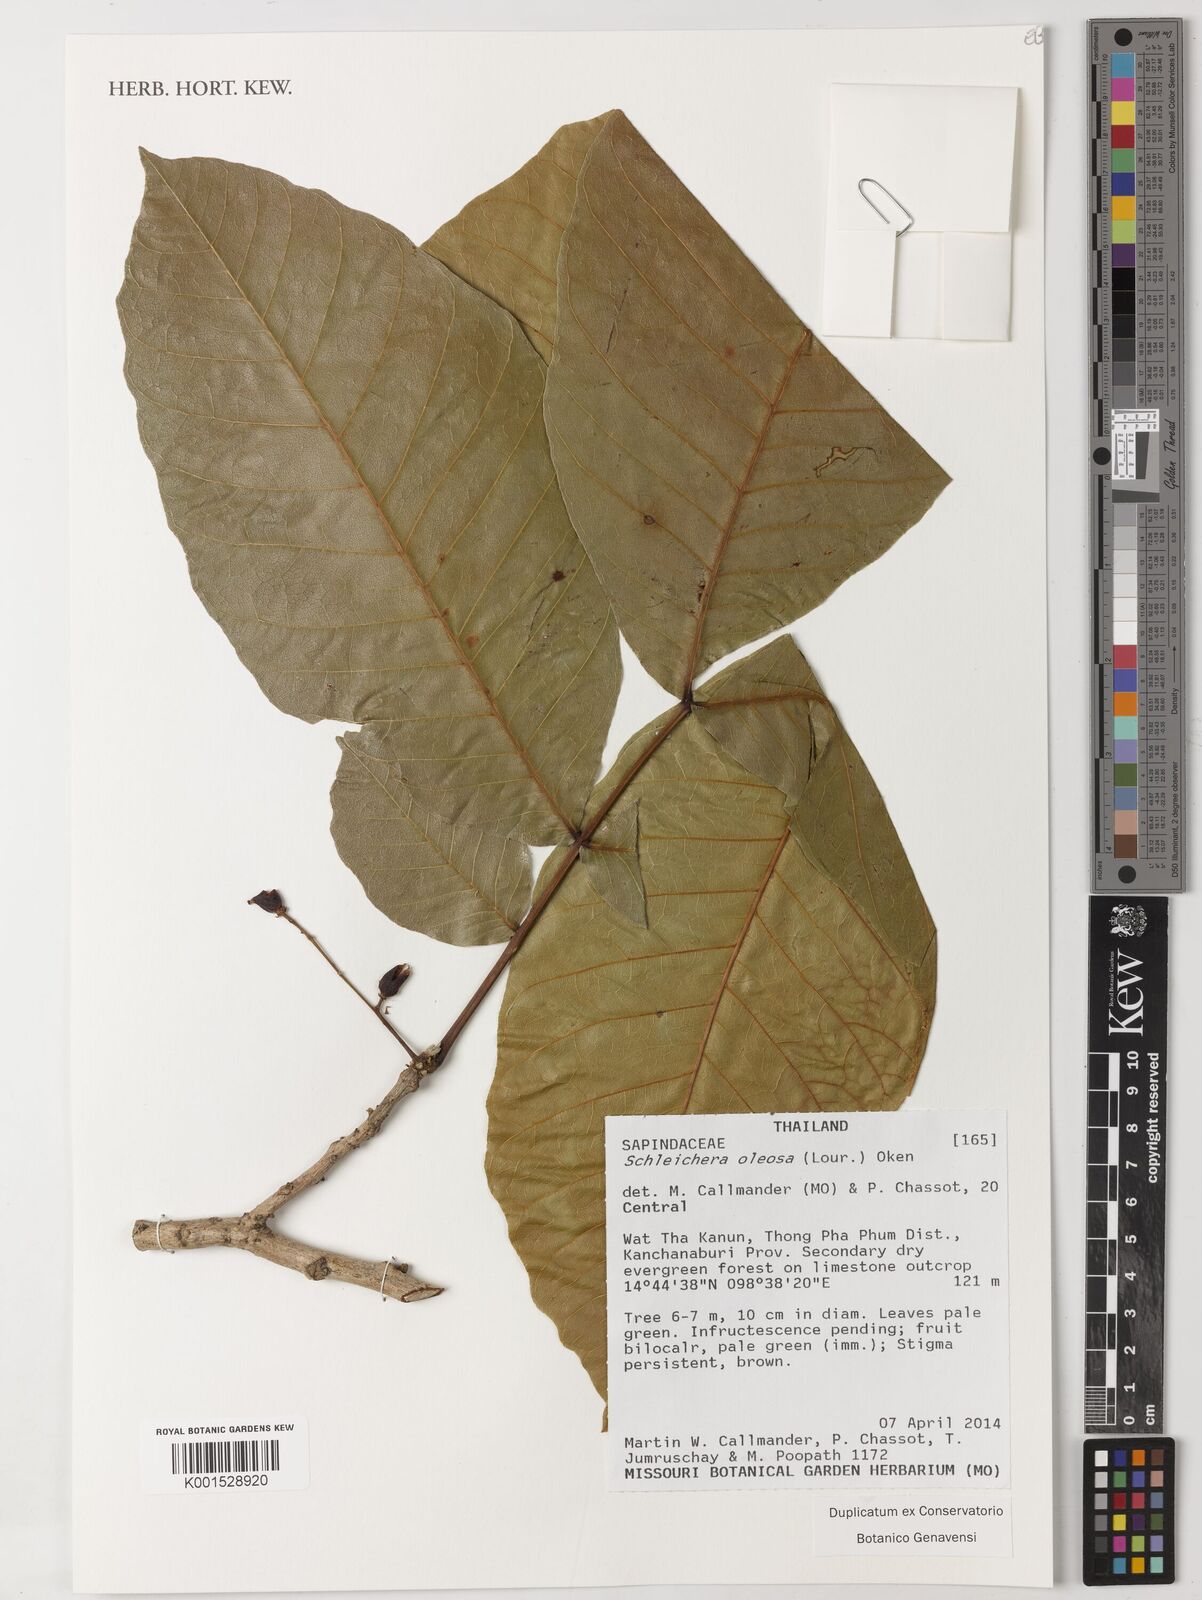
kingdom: Plantae
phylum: Tracheophyta
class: Magnoliopsida
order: Sapindales
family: Sapindaceae
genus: Schleichera
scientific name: Schleichera oleosa
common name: Malay lactree
